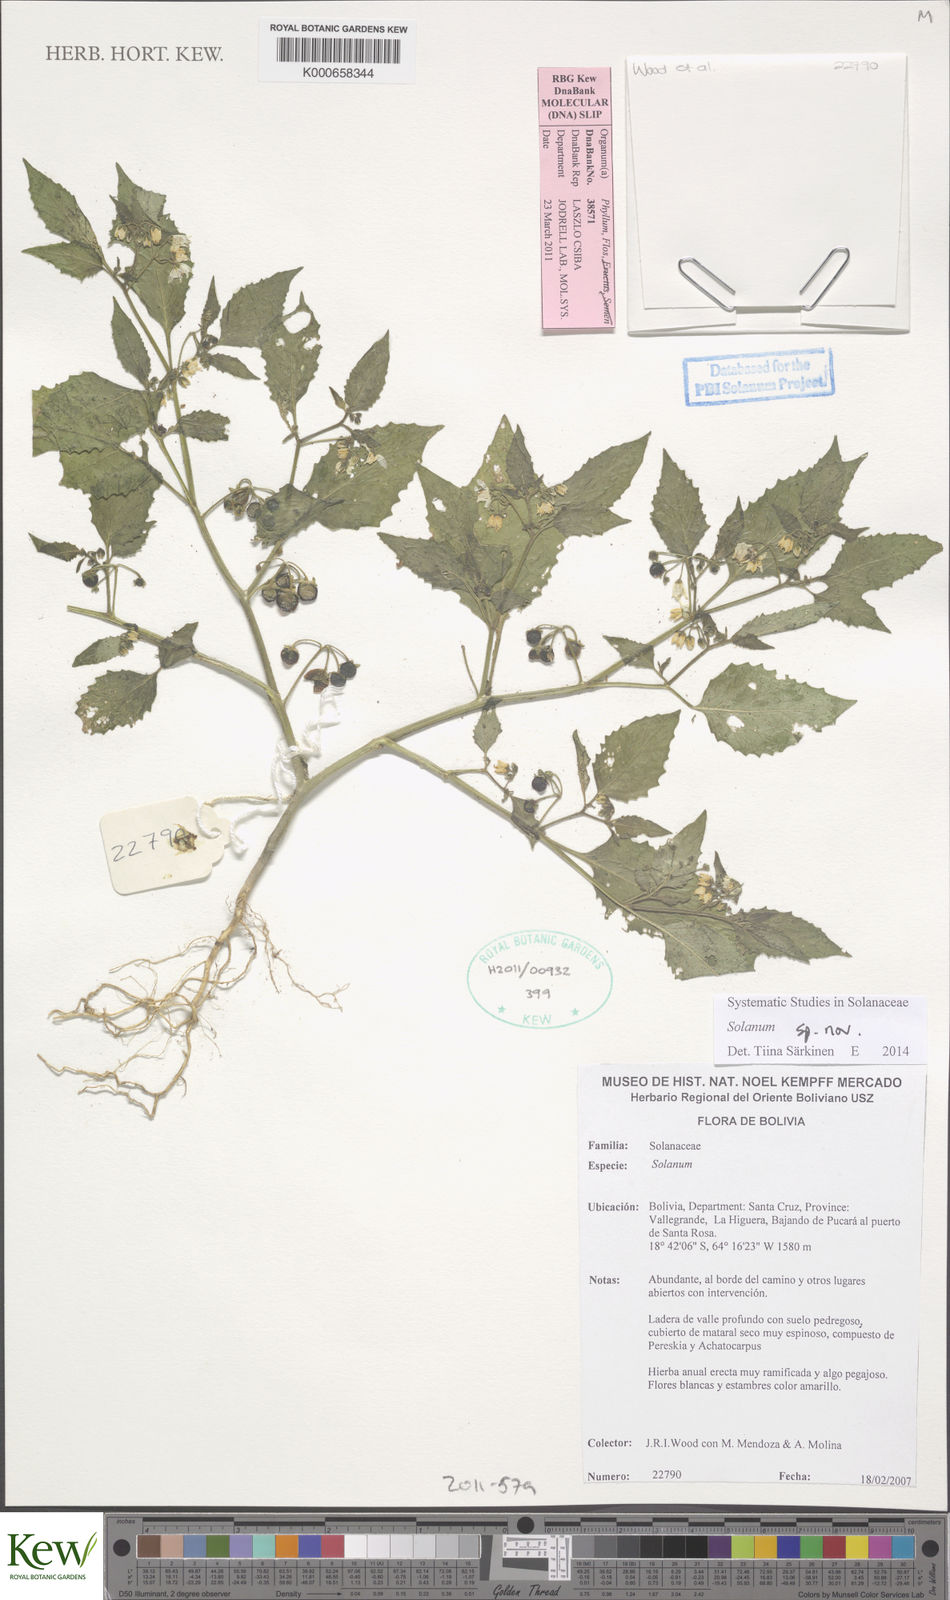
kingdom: Plantae
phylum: Tracheophyta
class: Magnoliopsida
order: Solanales
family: Solanaceae
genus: Solanum
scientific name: Solanum
